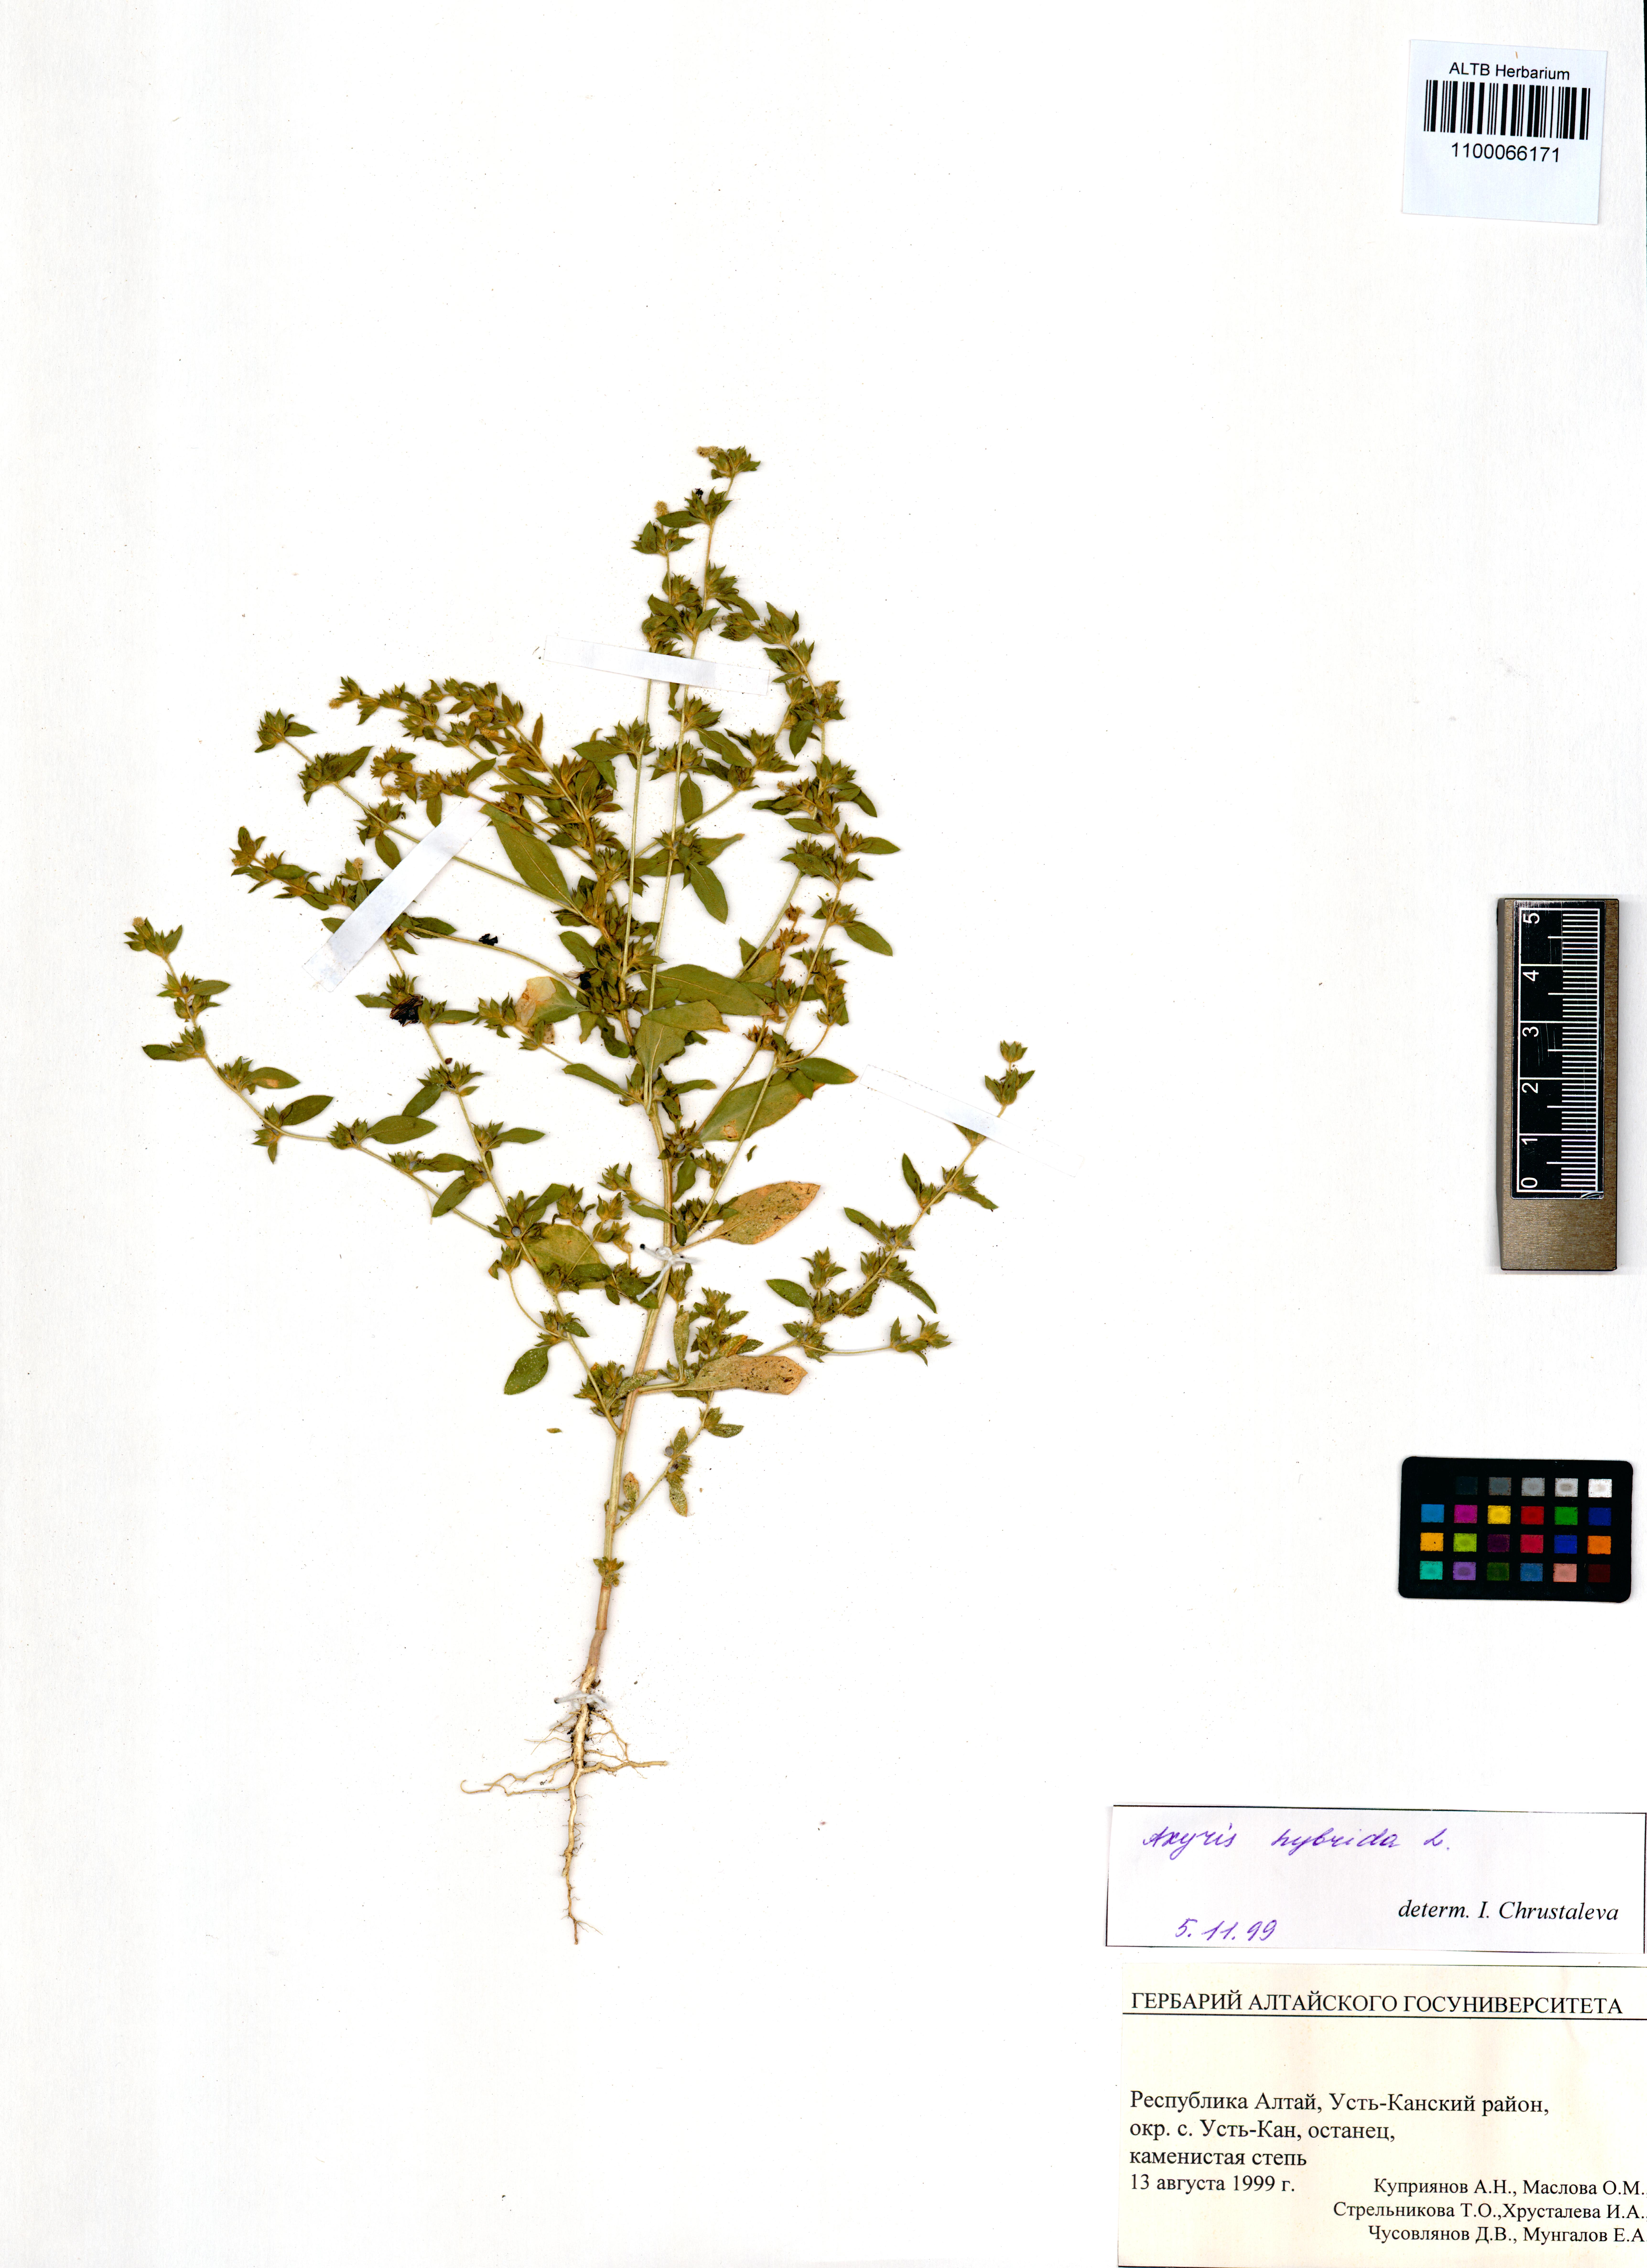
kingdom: Plantae
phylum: Tracheophyta
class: Magnoliopsida
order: Caryophyllales
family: Amaranthaceae
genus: Axyris
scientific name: Axyris hybrida
